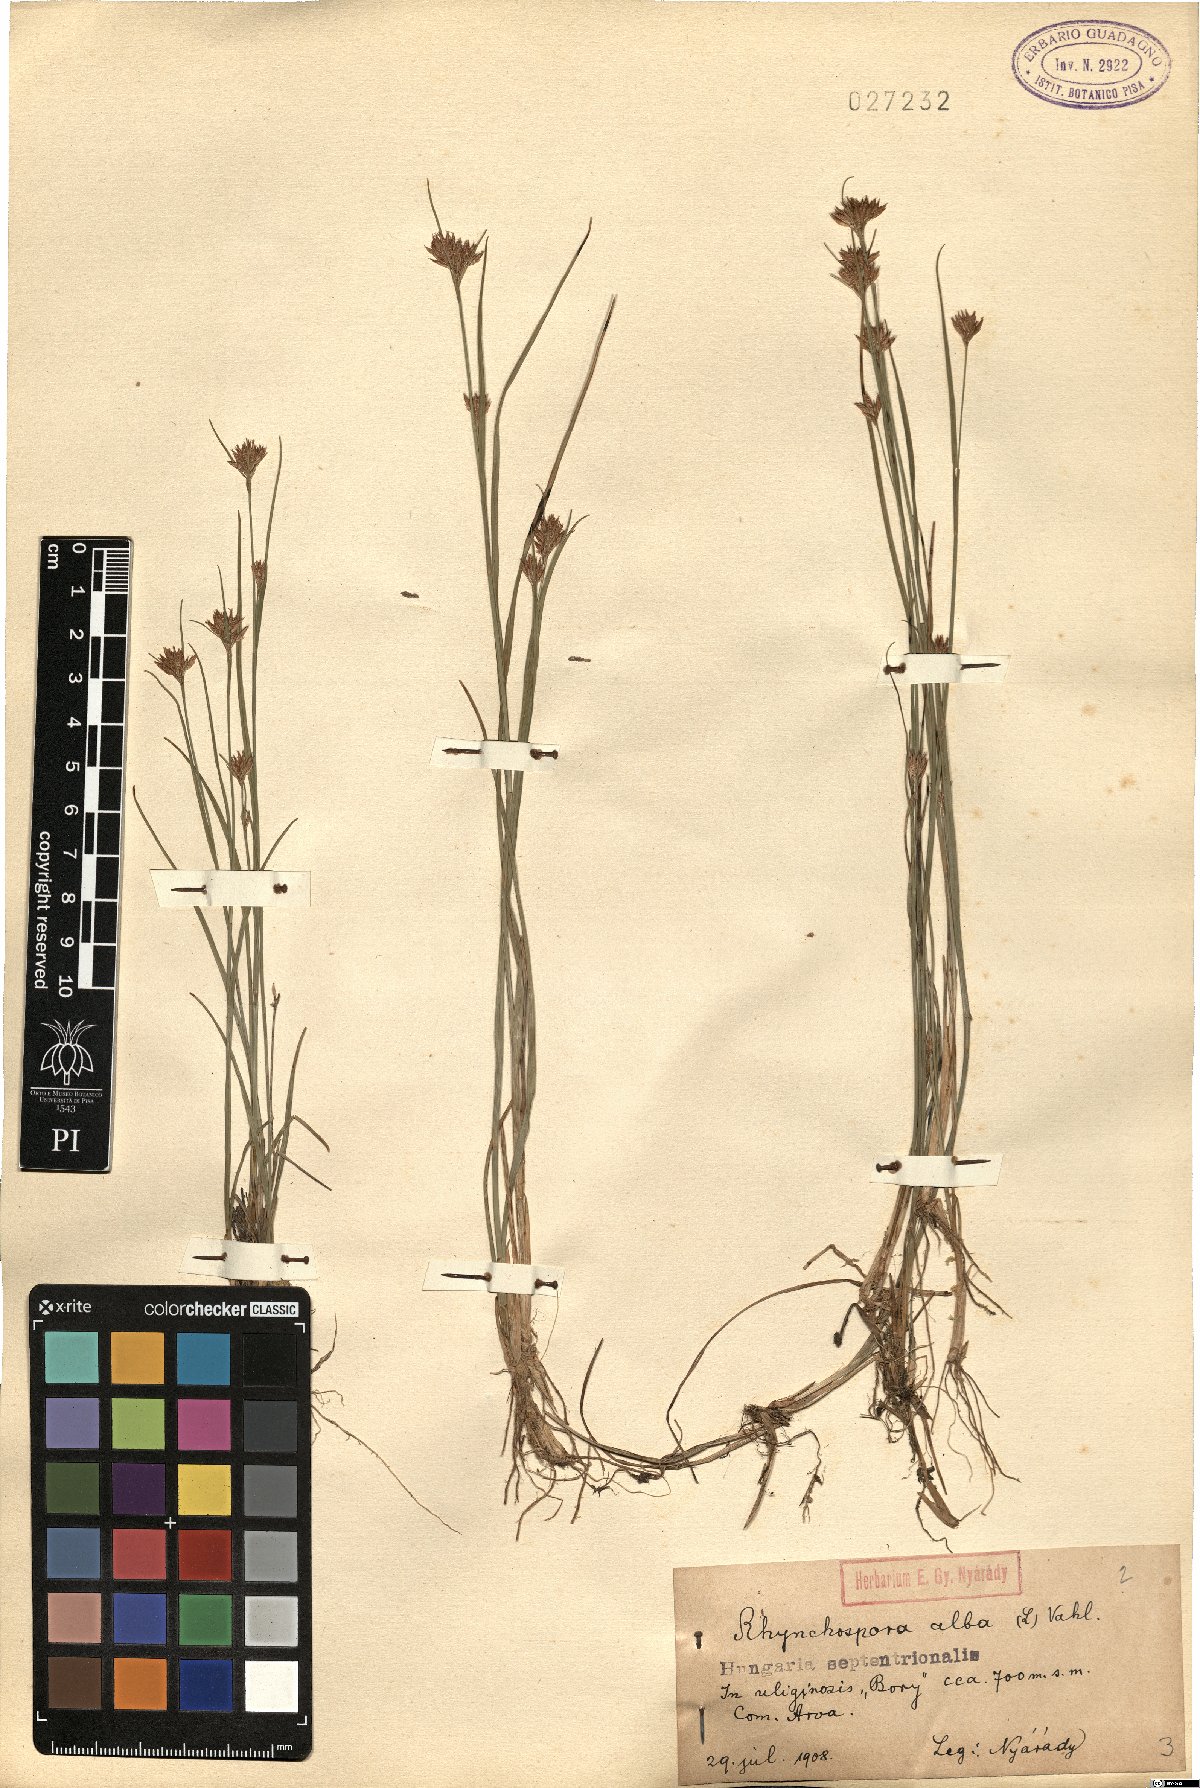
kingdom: Plantae
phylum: Tracheophyta
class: Liliopsida
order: Poales
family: Cyperaceae
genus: Rhynchospora
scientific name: Rhynchospora alba
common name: White beak-sedge
